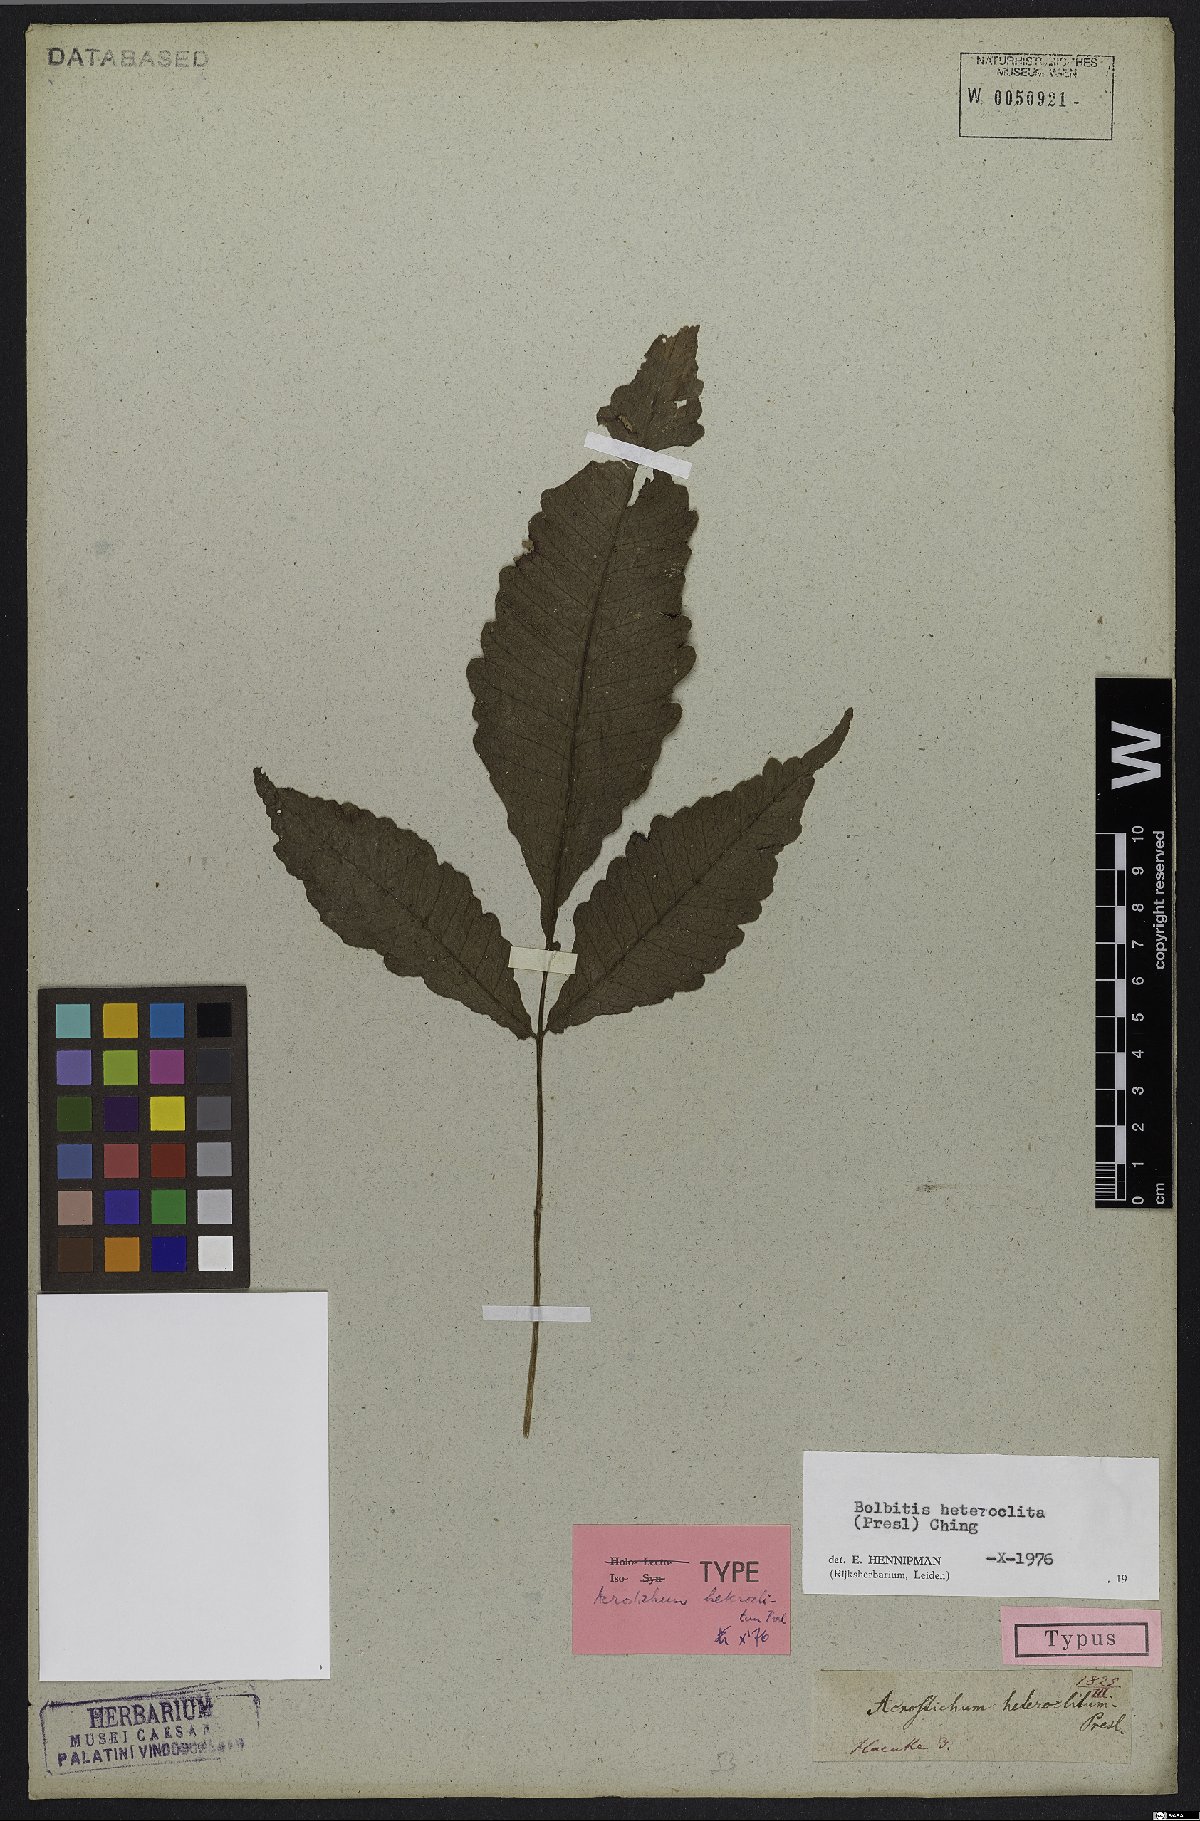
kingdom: Plantae
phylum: Tracheophyta
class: Polypodiopsida
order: Polypodiales
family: Dryopteridaceae
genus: Bolbitis
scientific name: Bolbitis heteroclita
